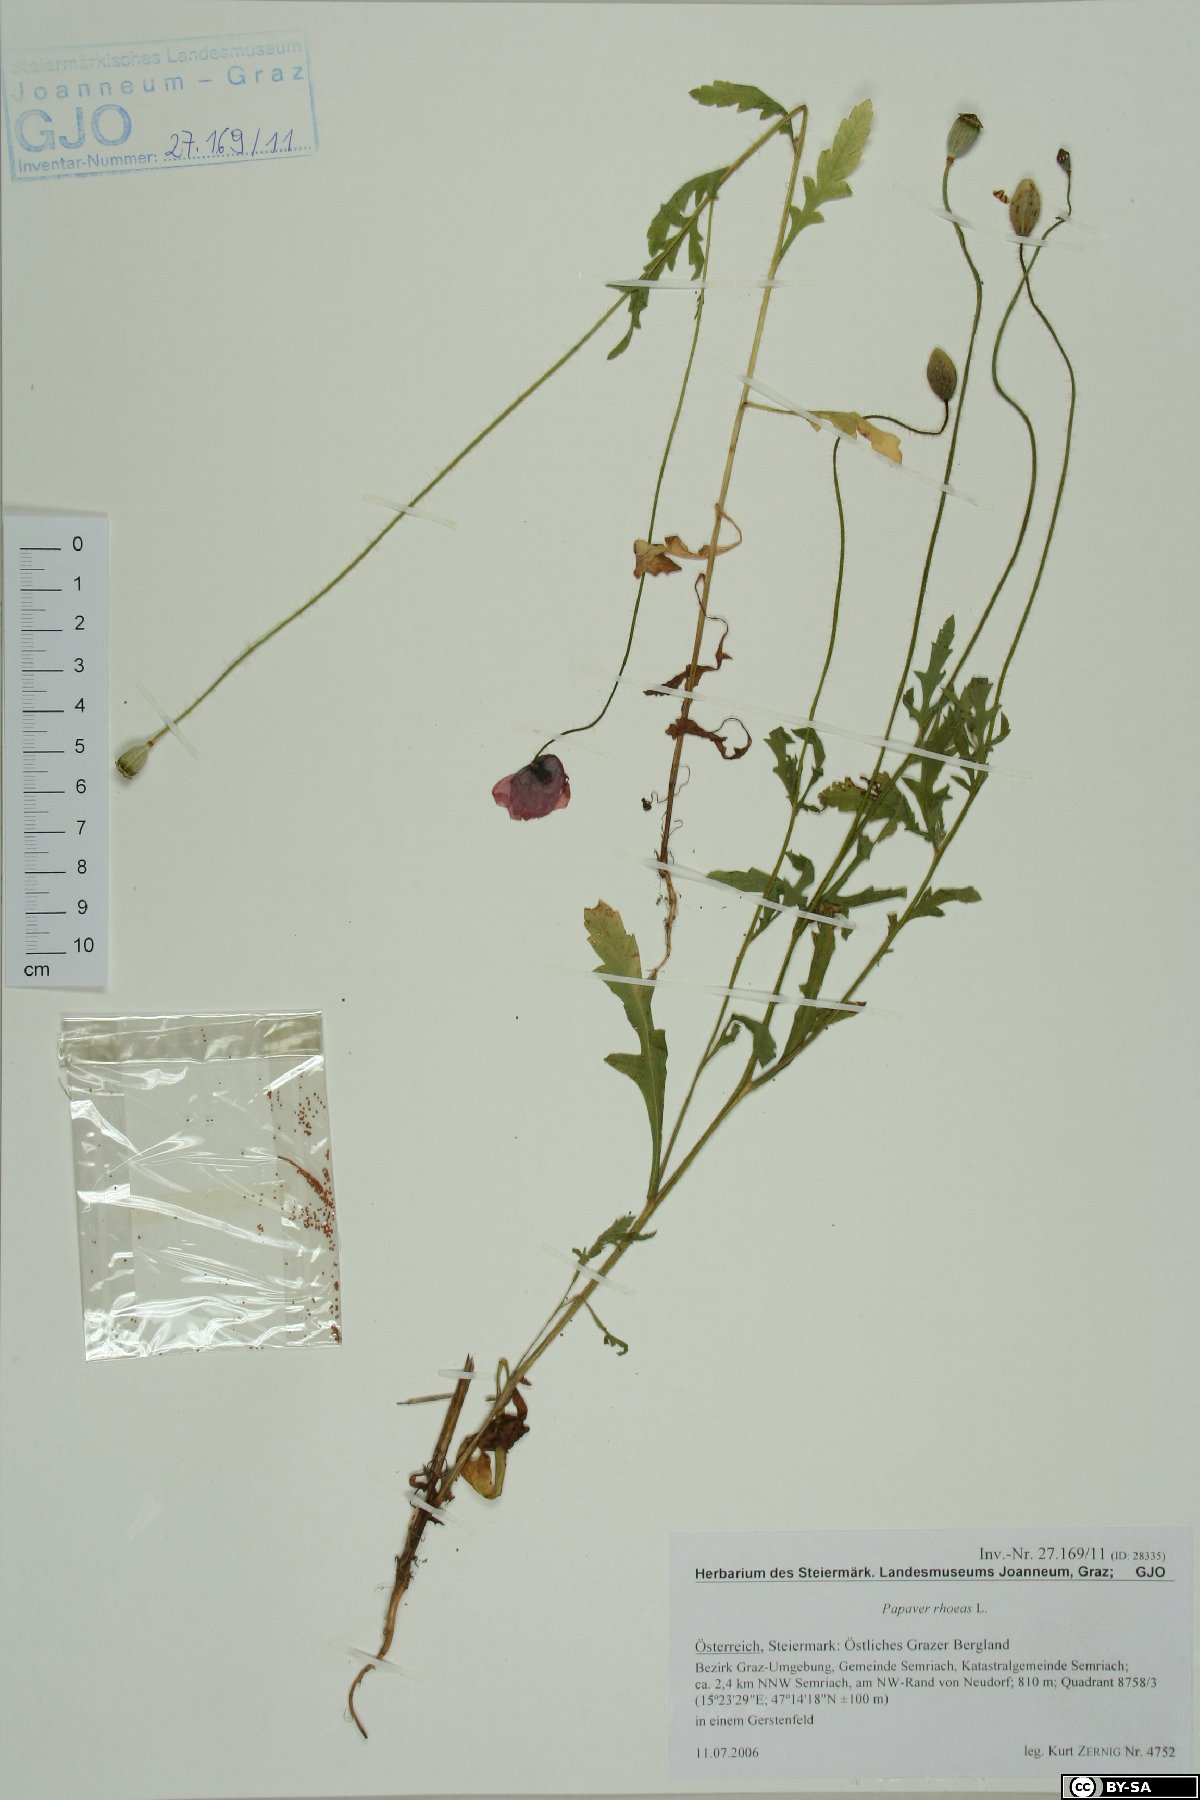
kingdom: Plantae
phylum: Tracheophyta
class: Magnoliopsida
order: Ranunculales
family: Papaveraceae
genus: Papaver
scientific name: Papaver rhoeas
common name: Corn poppy
